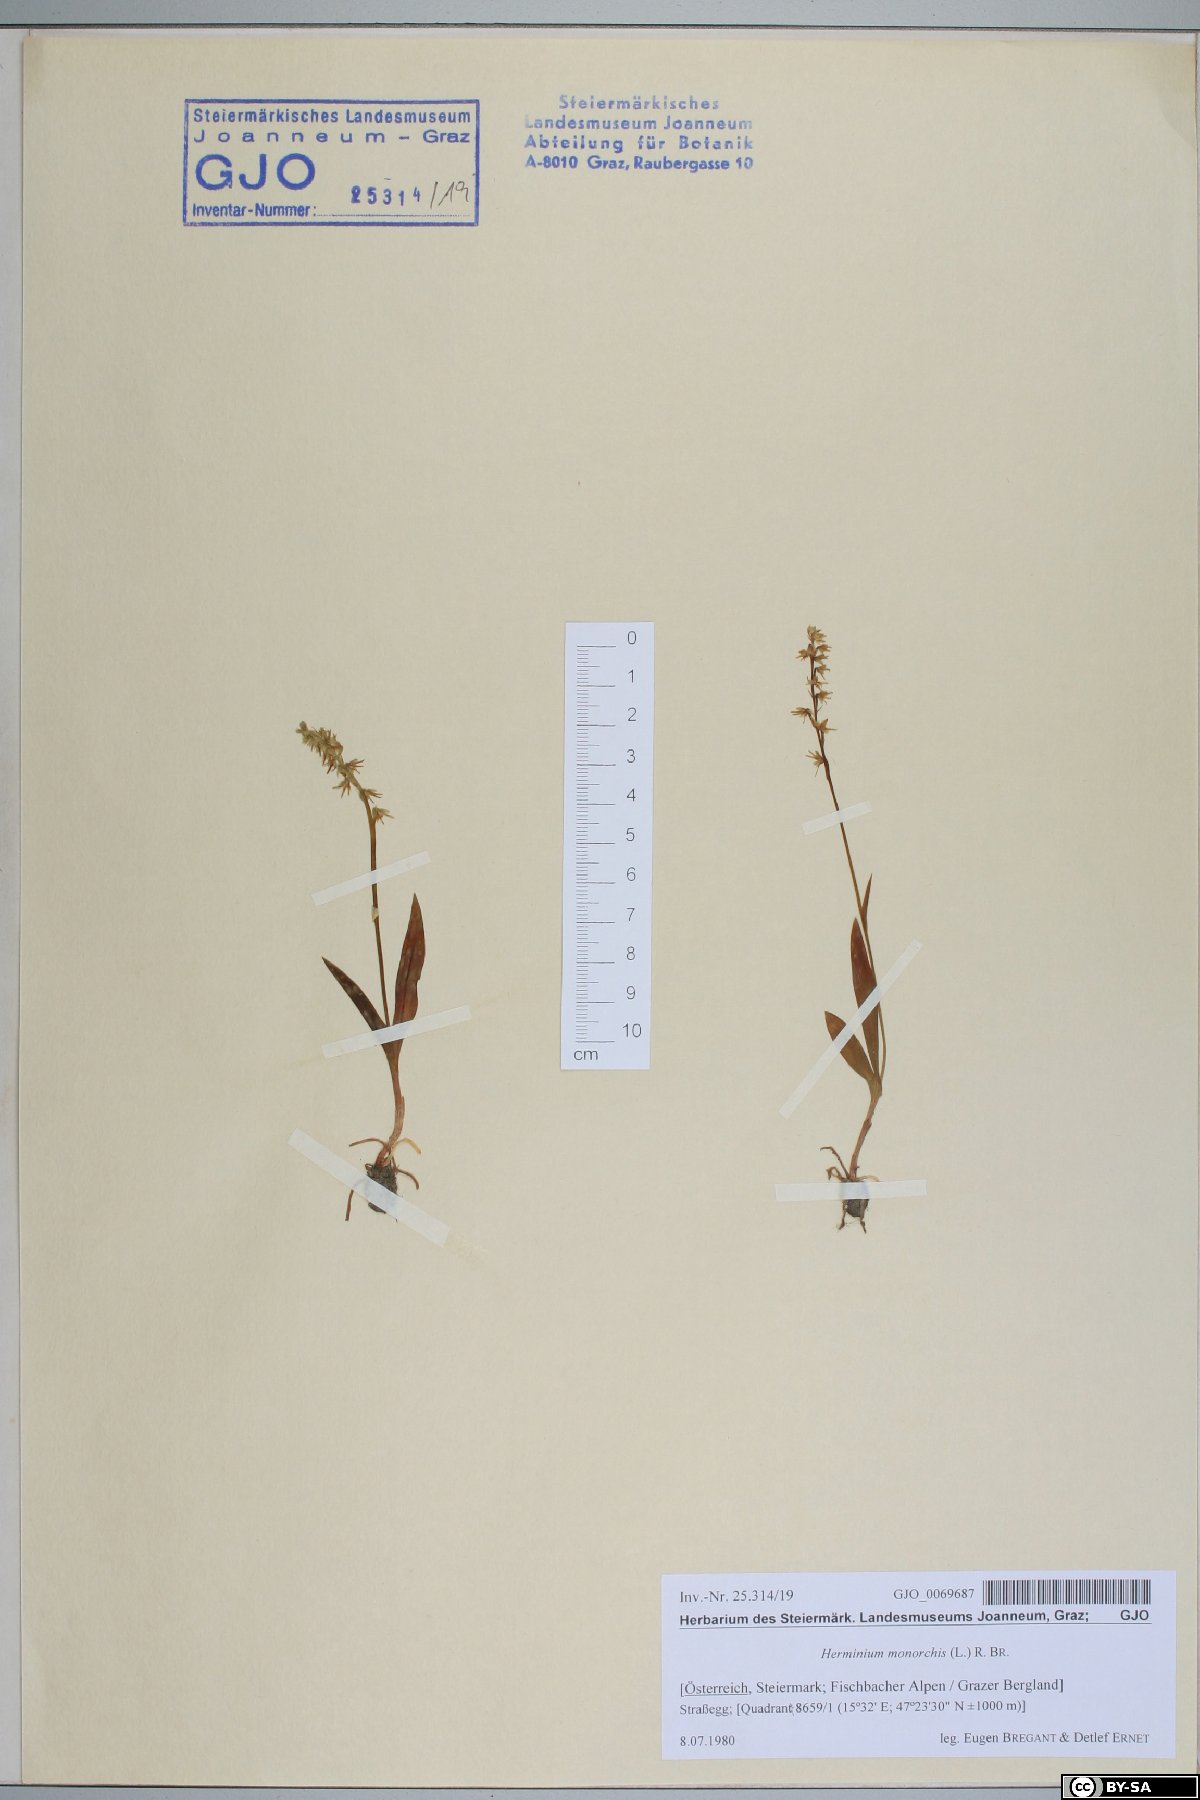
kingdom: Plantae
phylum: Tracheophyta
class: Liliopsida
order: Asparagales
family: Orchidaceae
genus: Herminium
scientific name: Herminium monorchis
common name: Musk orchid
